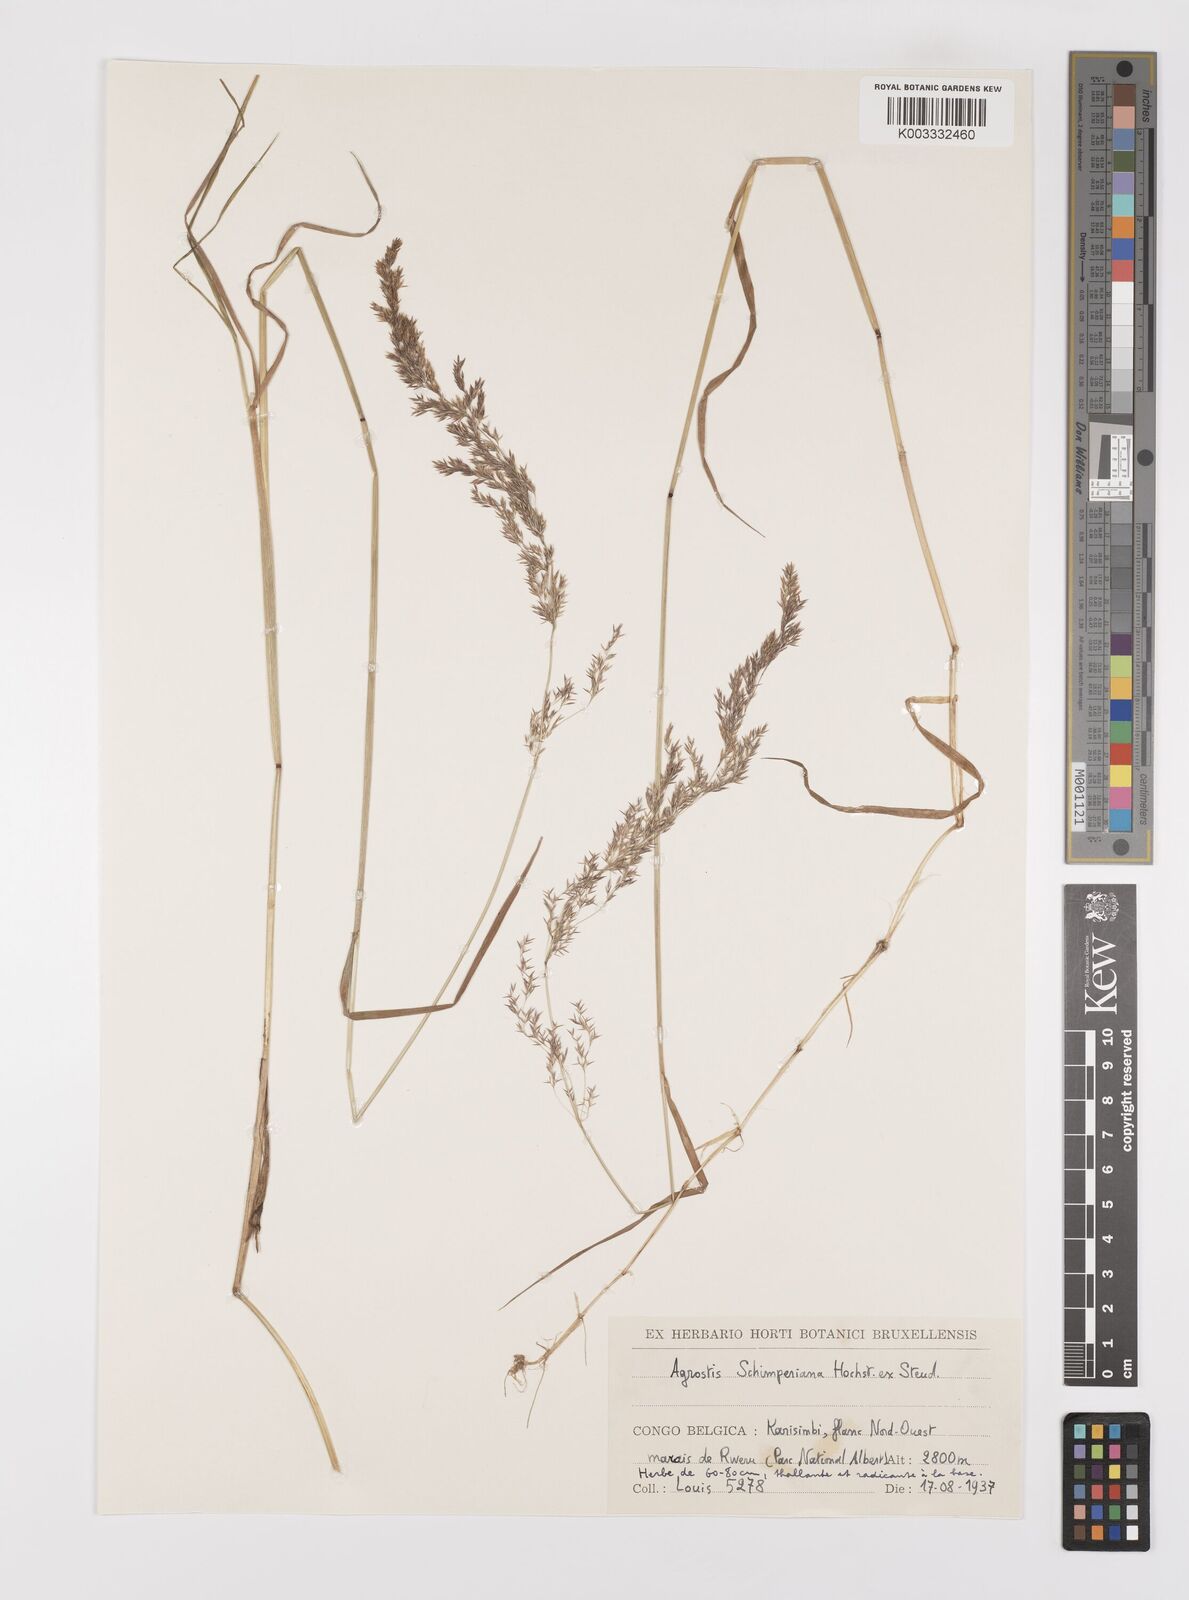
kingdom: Plantae
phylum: Tracheophyta
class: Liliopsida
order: Poales
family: Poaceae
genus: Polypogon
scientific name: Polypogon schimperianus
